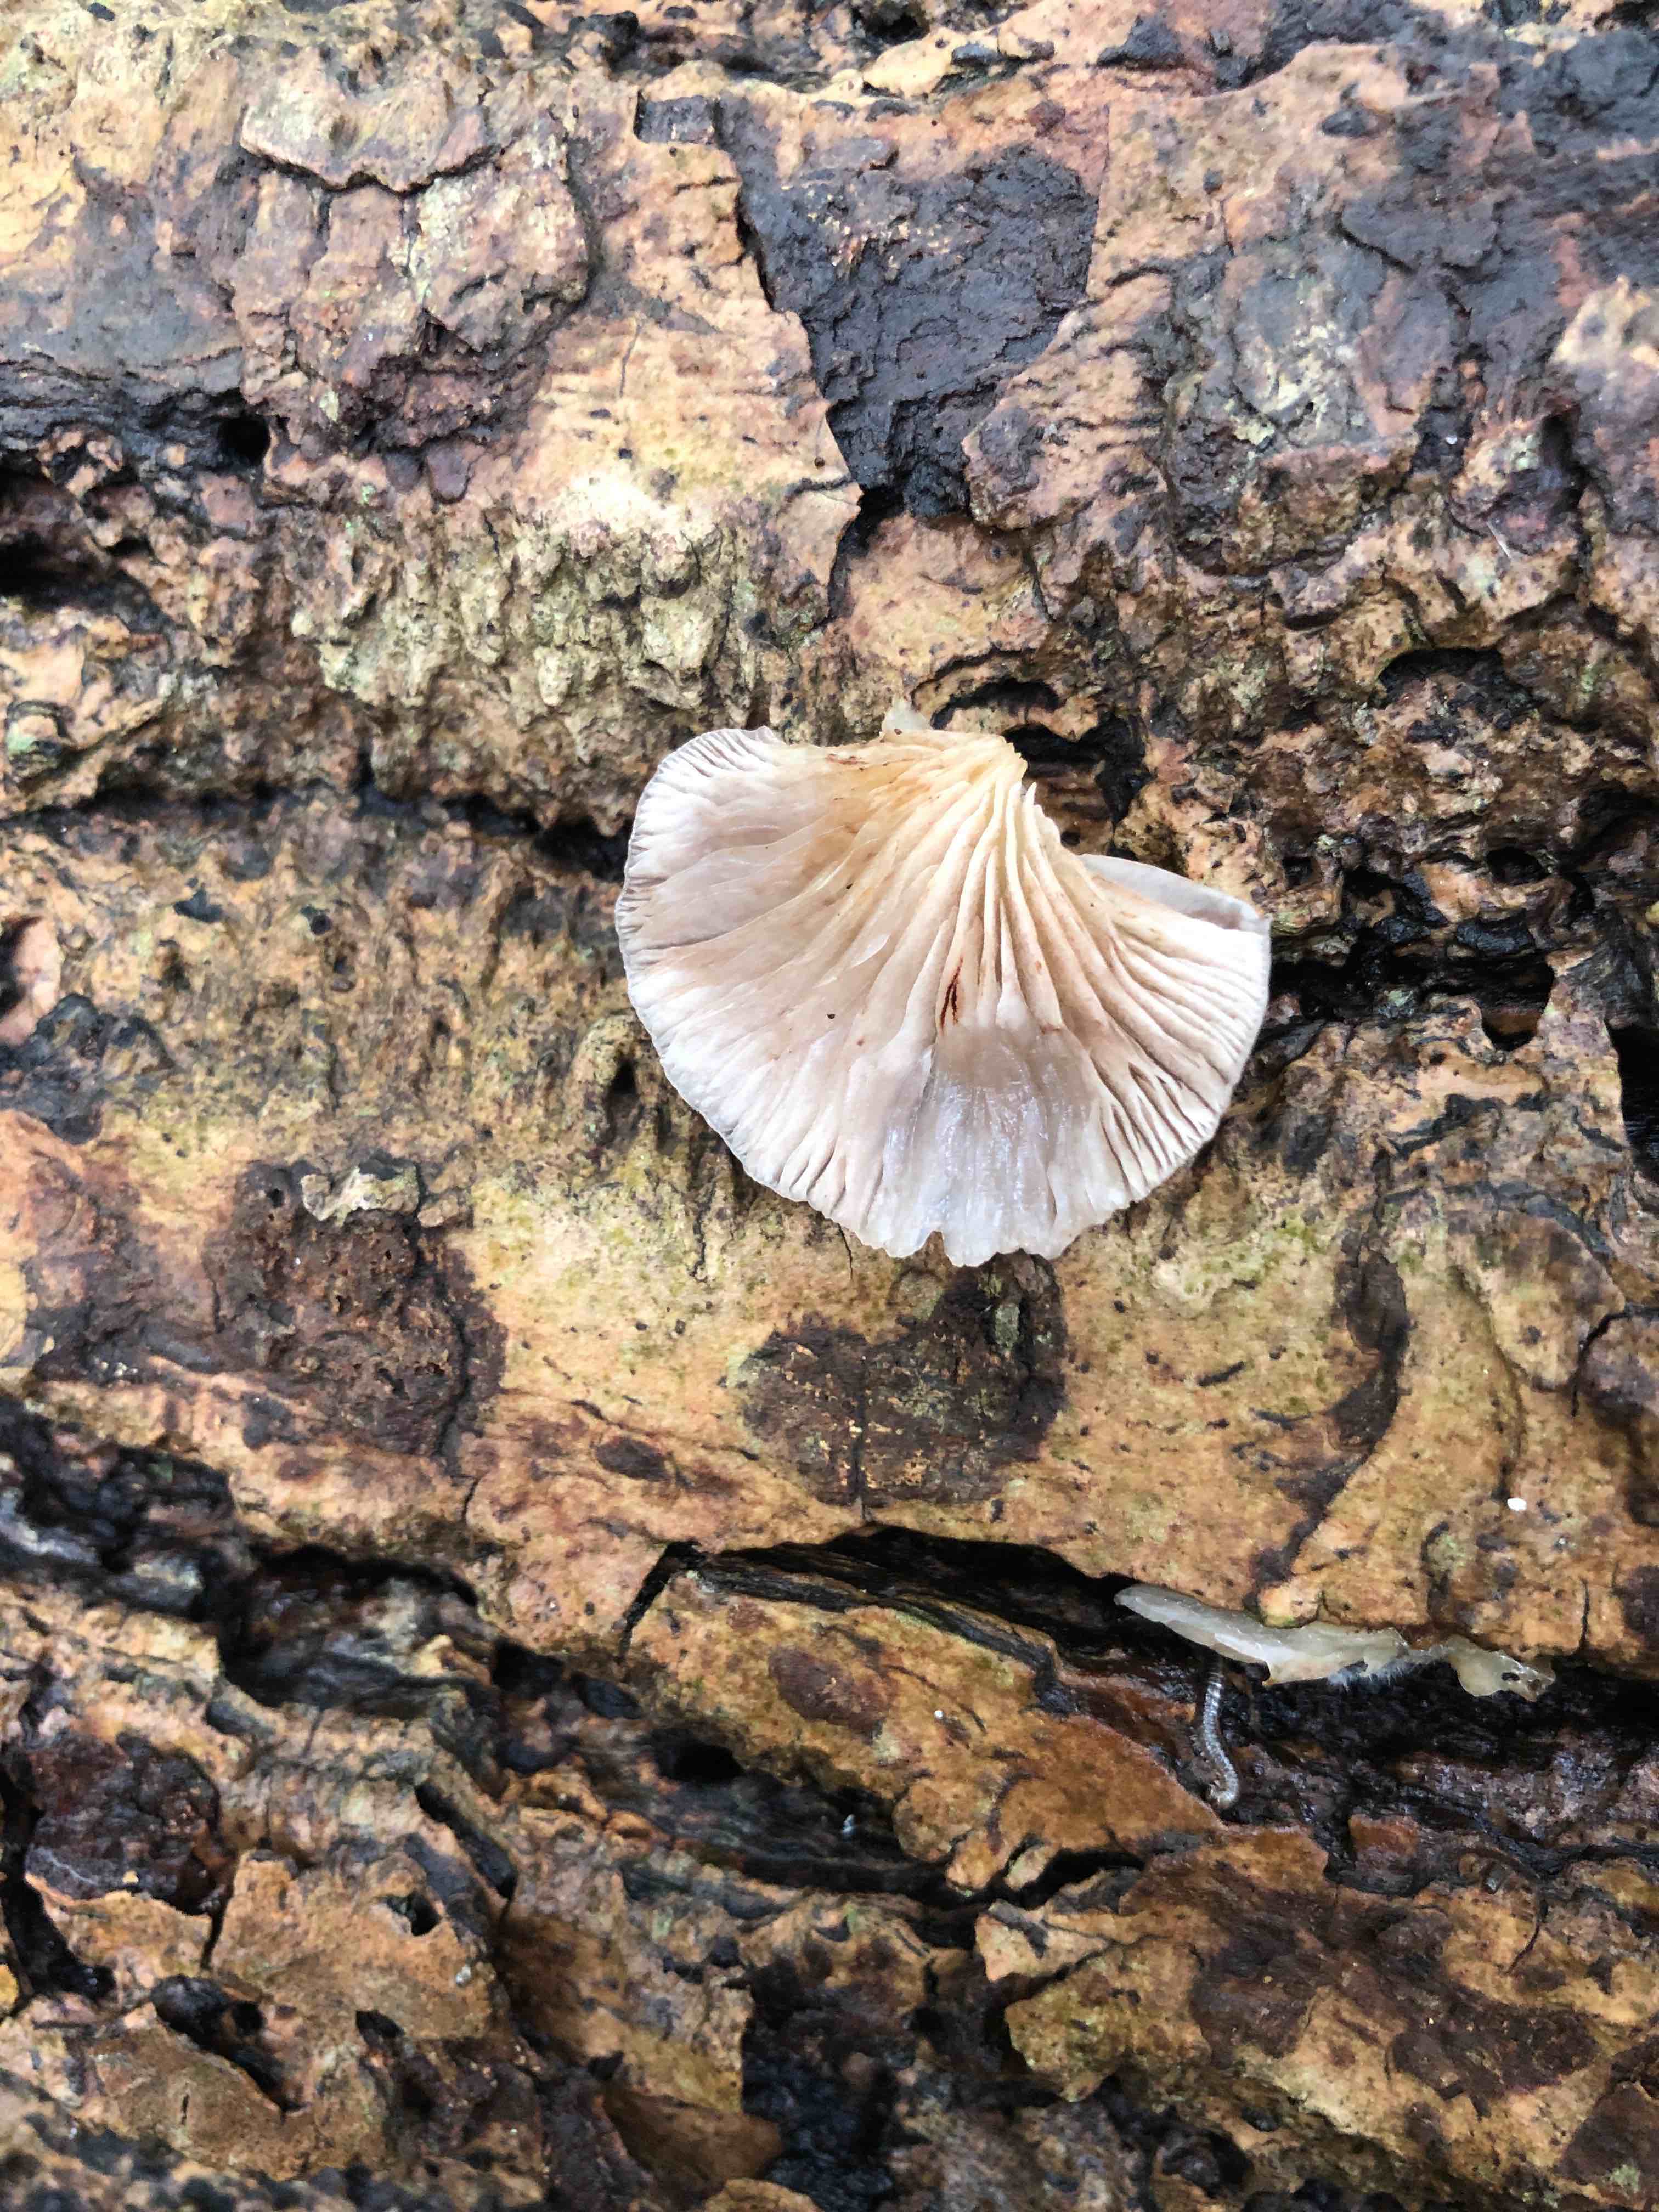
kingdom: Fungi
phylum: Basidiomycota
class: Agaricomycetes
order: Agaricales
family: Crepidotaceae
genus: Crepidotus
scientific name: Crepidotus mollis
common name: blød muslingesvamp
